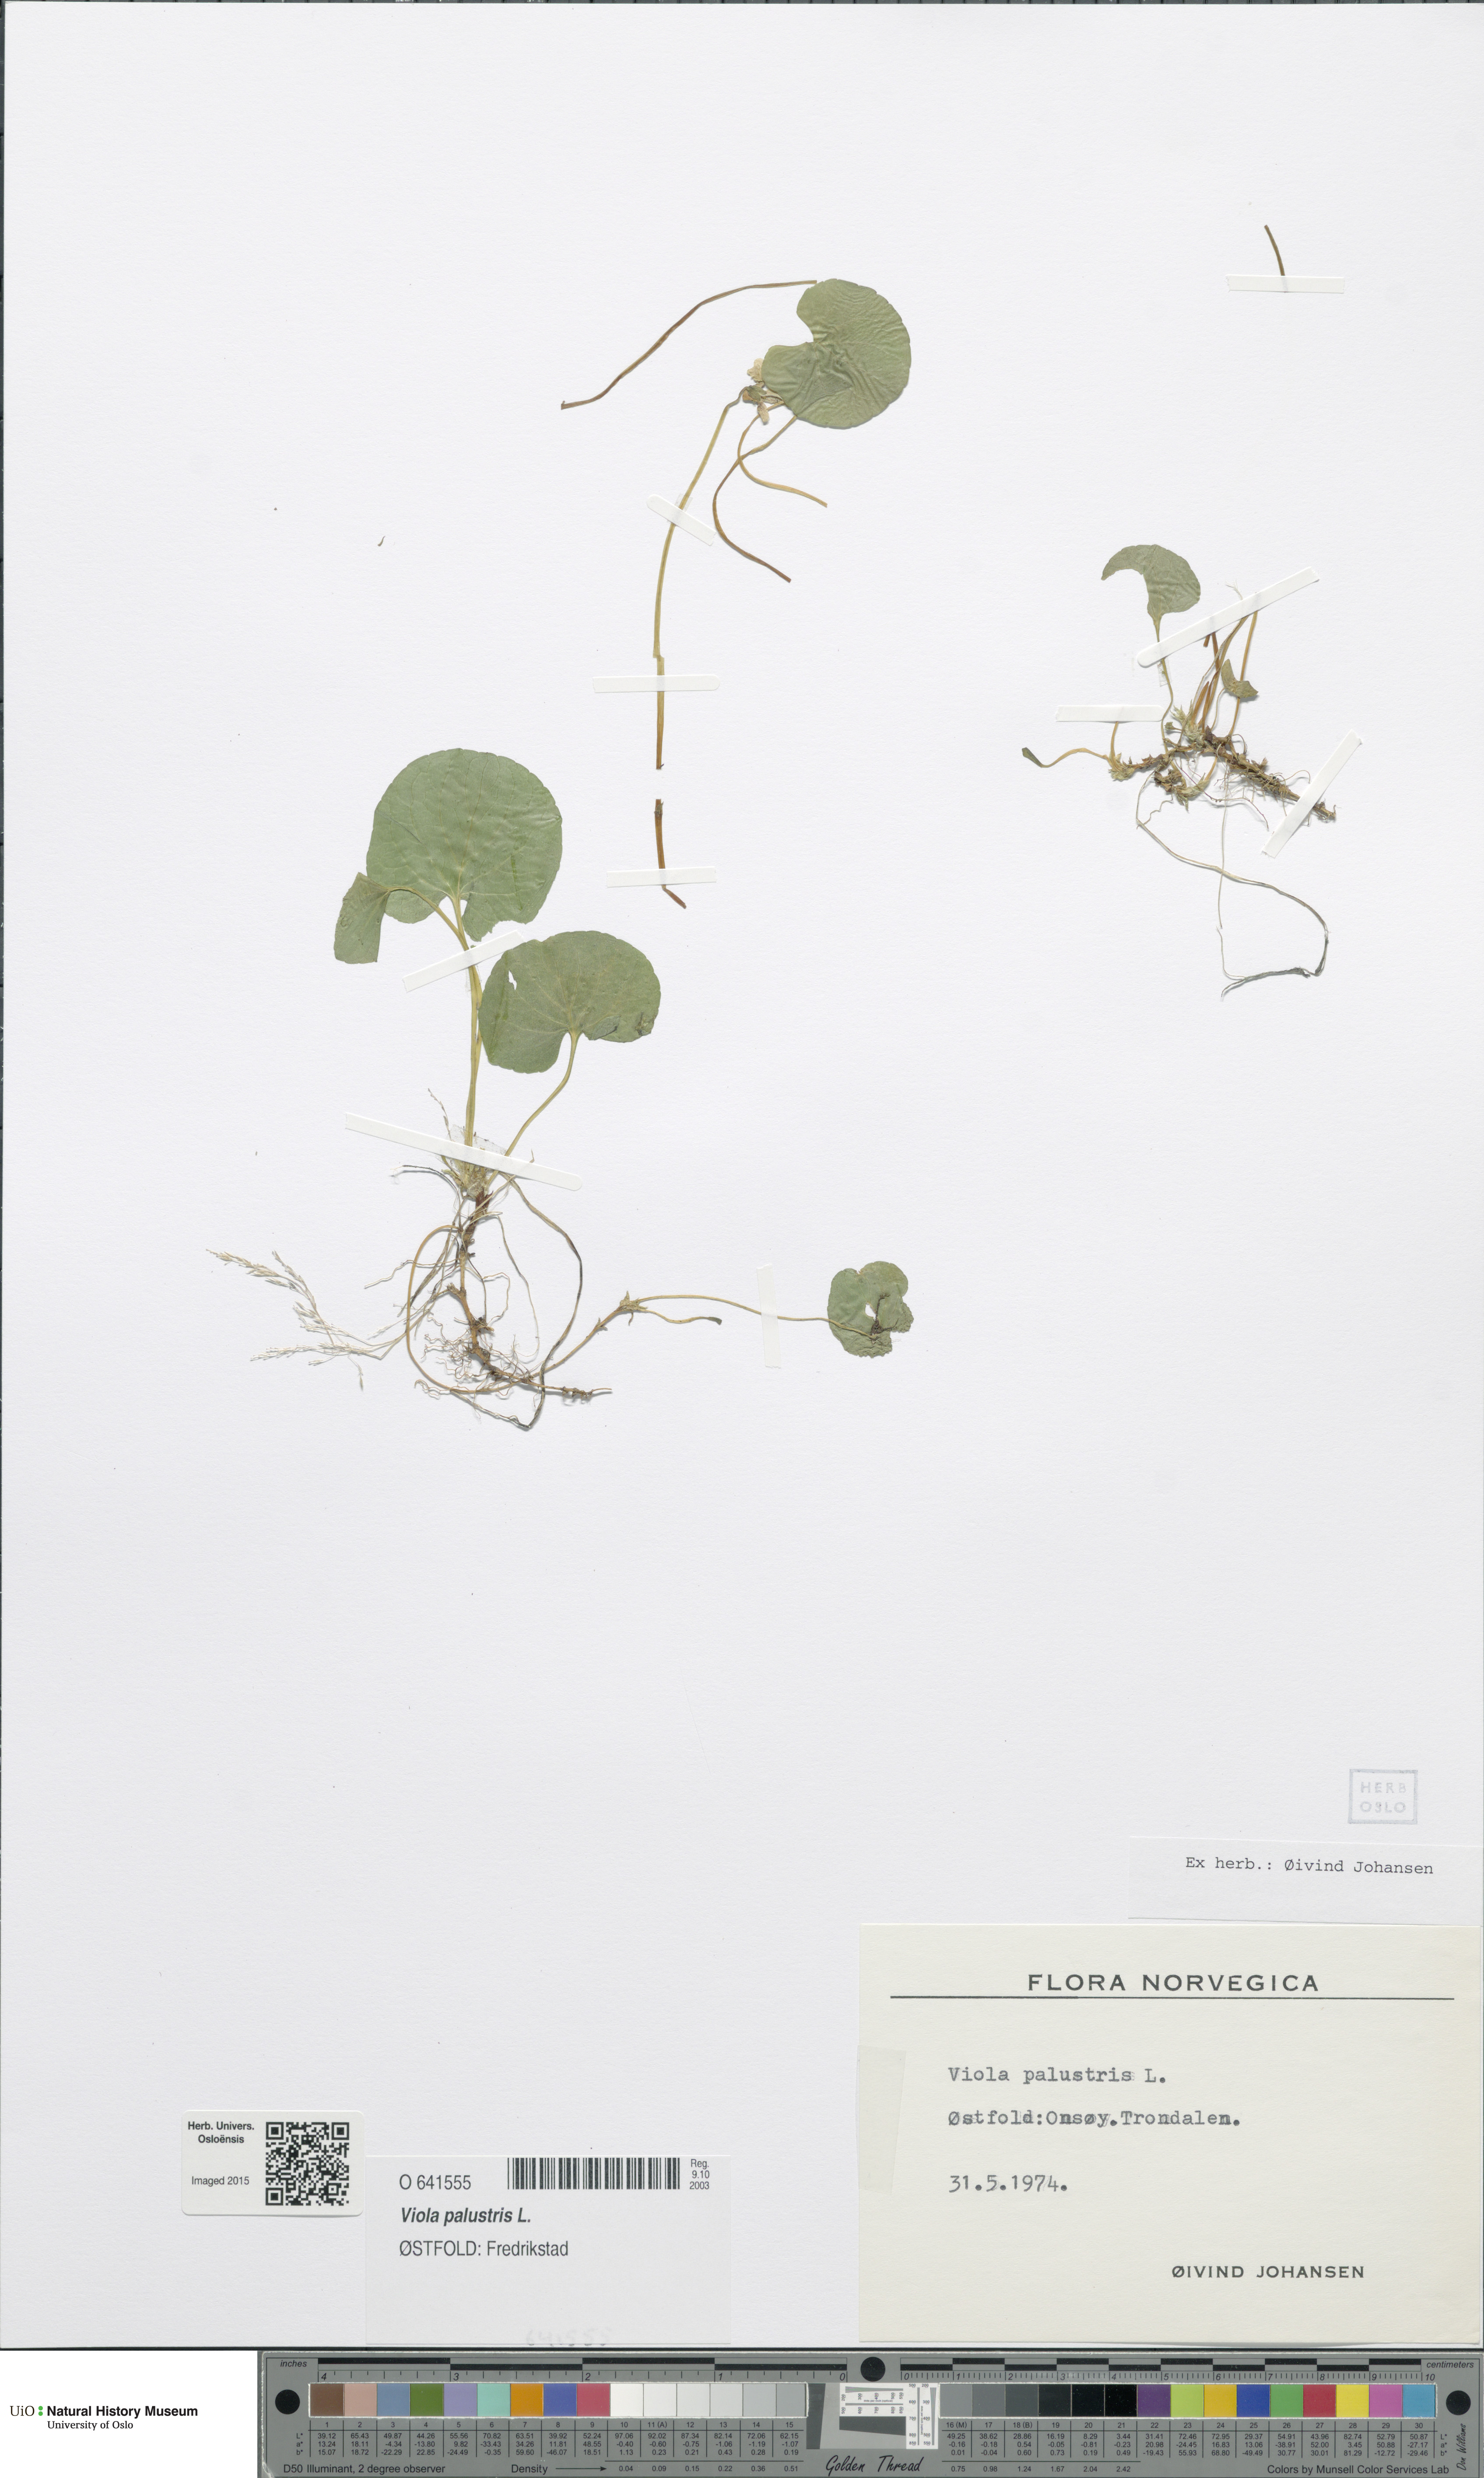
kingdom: Plantae
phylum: Tracheophyta
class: Magnoliopsida
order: Malpighiales
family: Violaceae
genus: Viola
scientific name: Viola palustris
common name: Marsh violet
